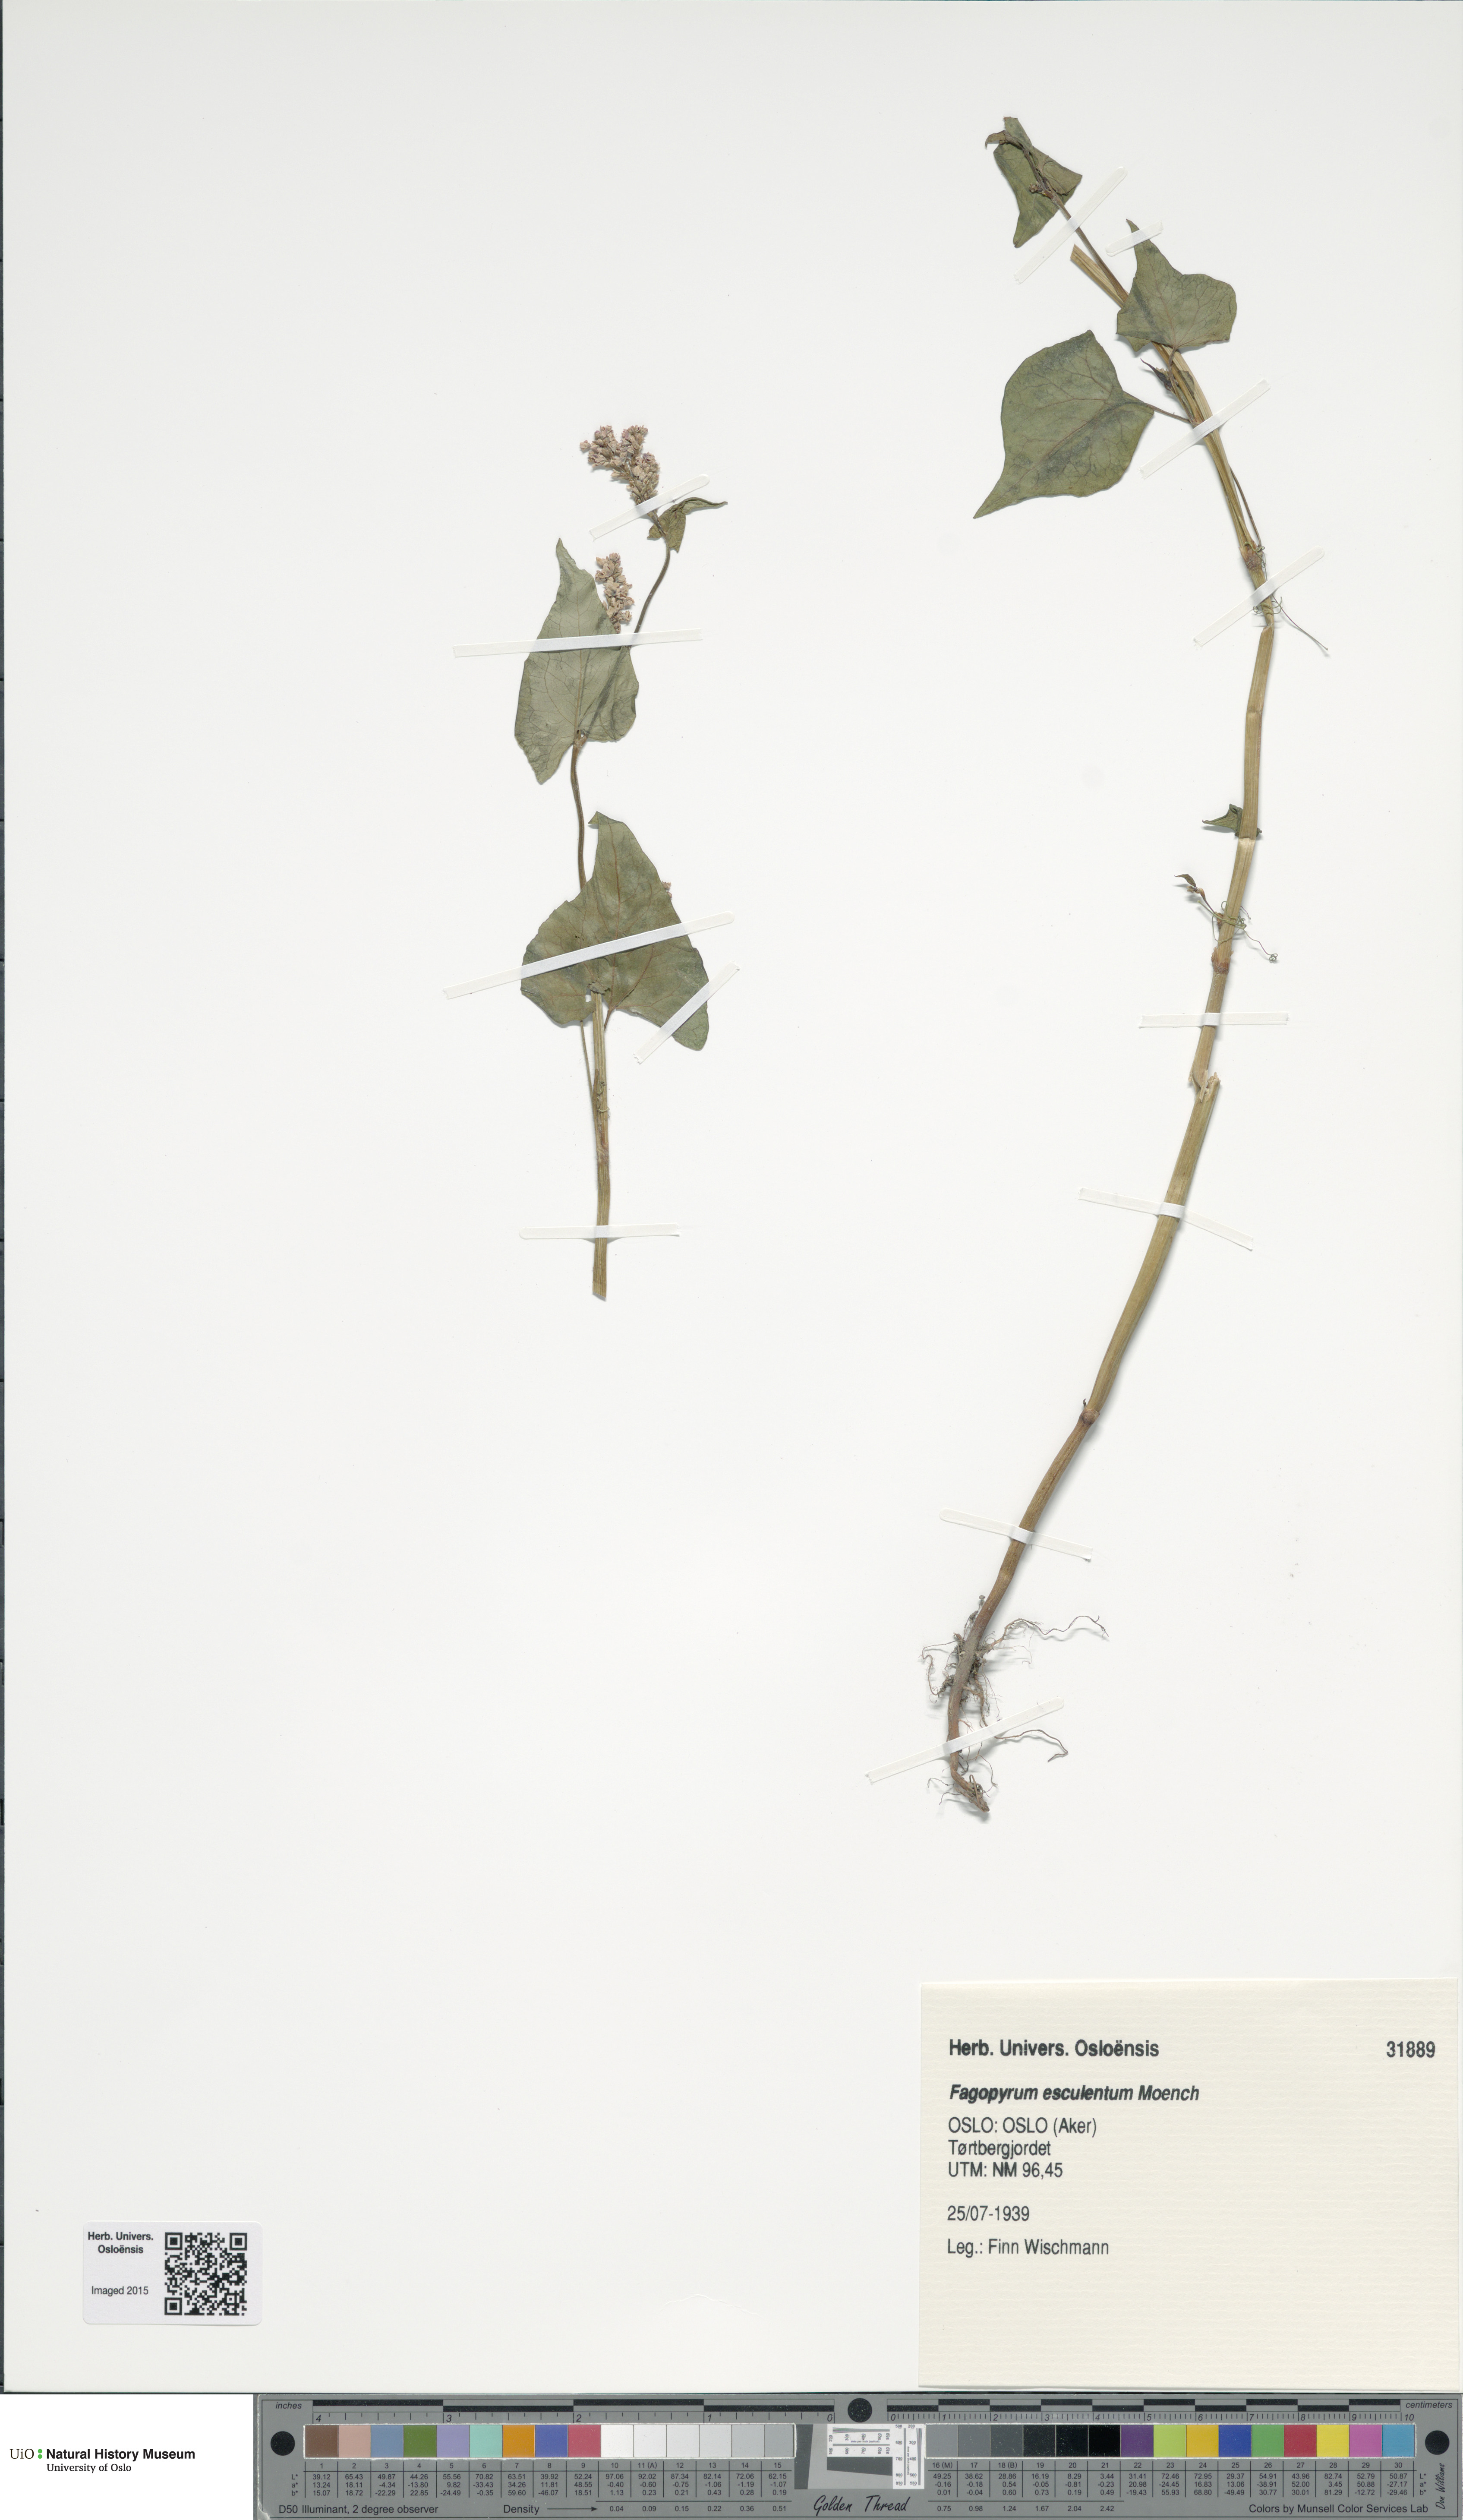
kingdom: Plantae
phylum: Tracheophyta
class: Magnoliopsida
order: Caryophyllales
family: Polygonaceae
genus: Fagopyrum
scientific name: Fagopyrum esculentum
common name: Buckwheat
